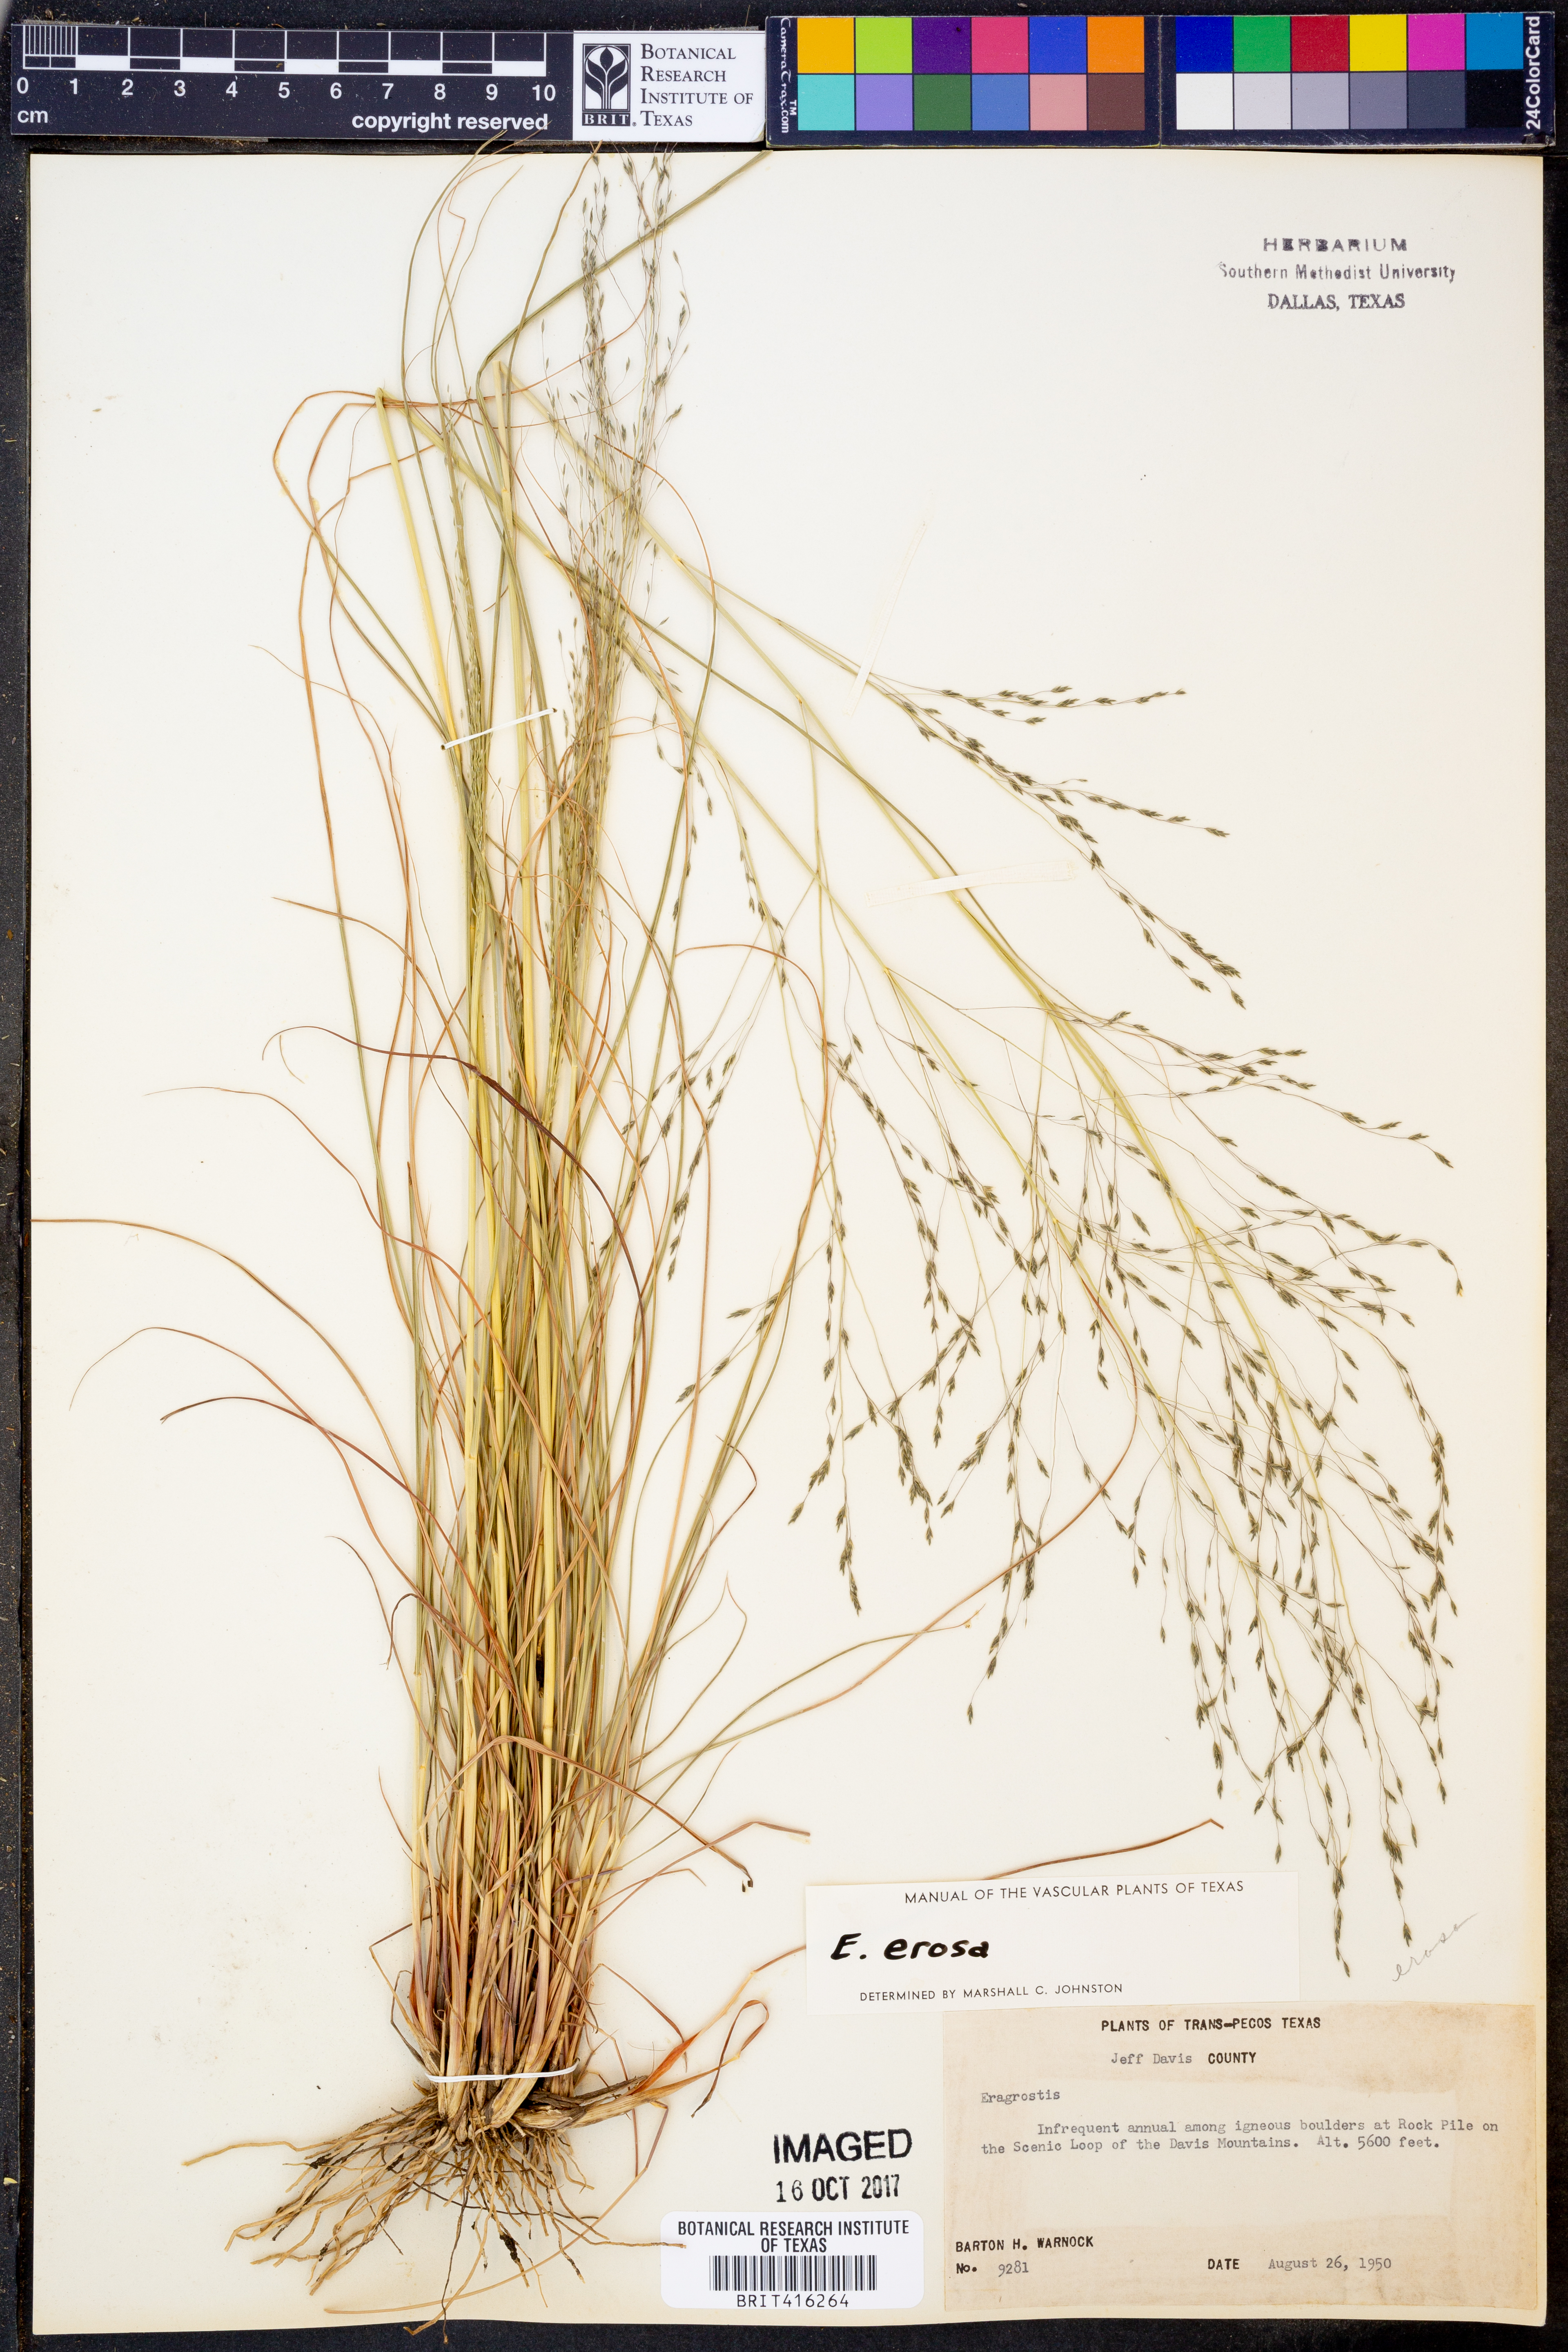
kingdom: Plantae
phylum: Tracheophyta
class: Liliopsida
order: Poales
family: Poaceae
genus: Eragrostis
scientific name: Eragrostis
